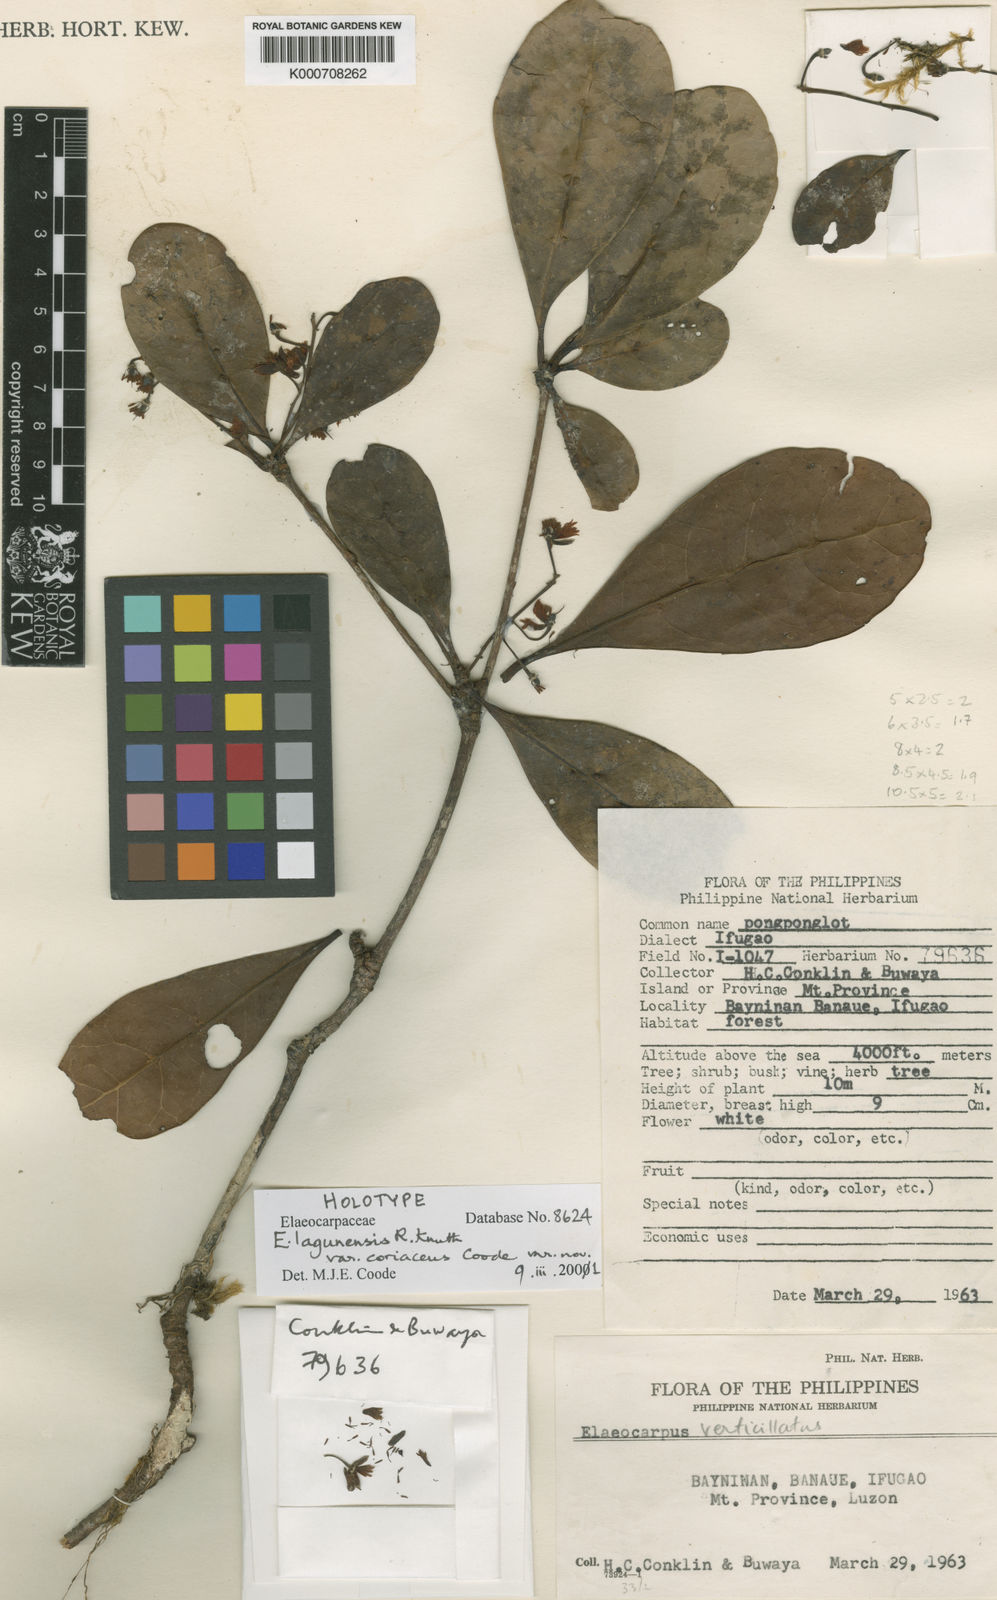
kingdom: Plantae
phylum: Tracheophyta
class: Magnoliopsida
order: Oxalidales
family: Elaeocarpaceae
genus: Elaeocarpus
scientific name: Elaeocarpus lagunensis
